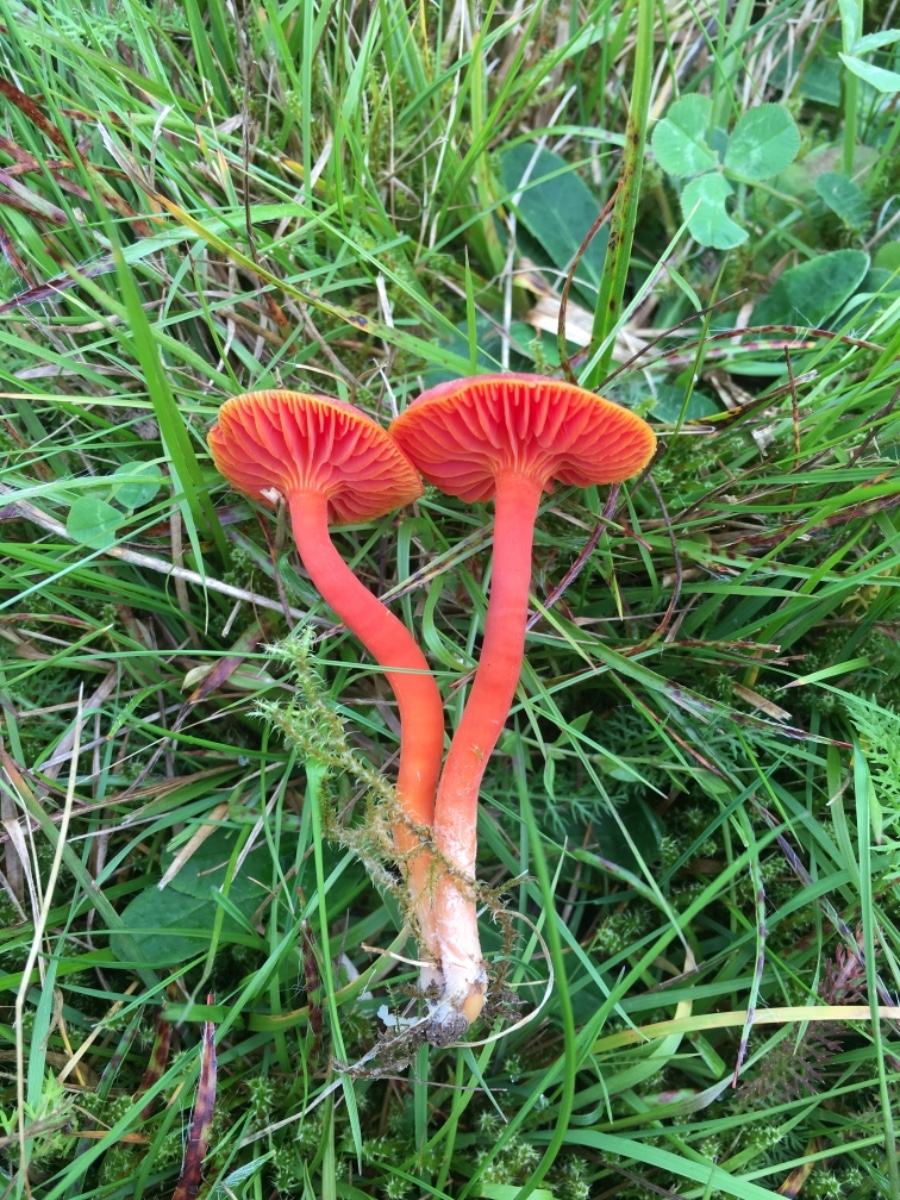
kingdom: Fungi
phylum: Basidiomycota
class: Agaricomycetes
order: Agaricales
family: Hygrophoraceae
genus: Hygrocybe
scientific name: Hygrocybe phaeococcinea
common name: sortdugget vokshat
